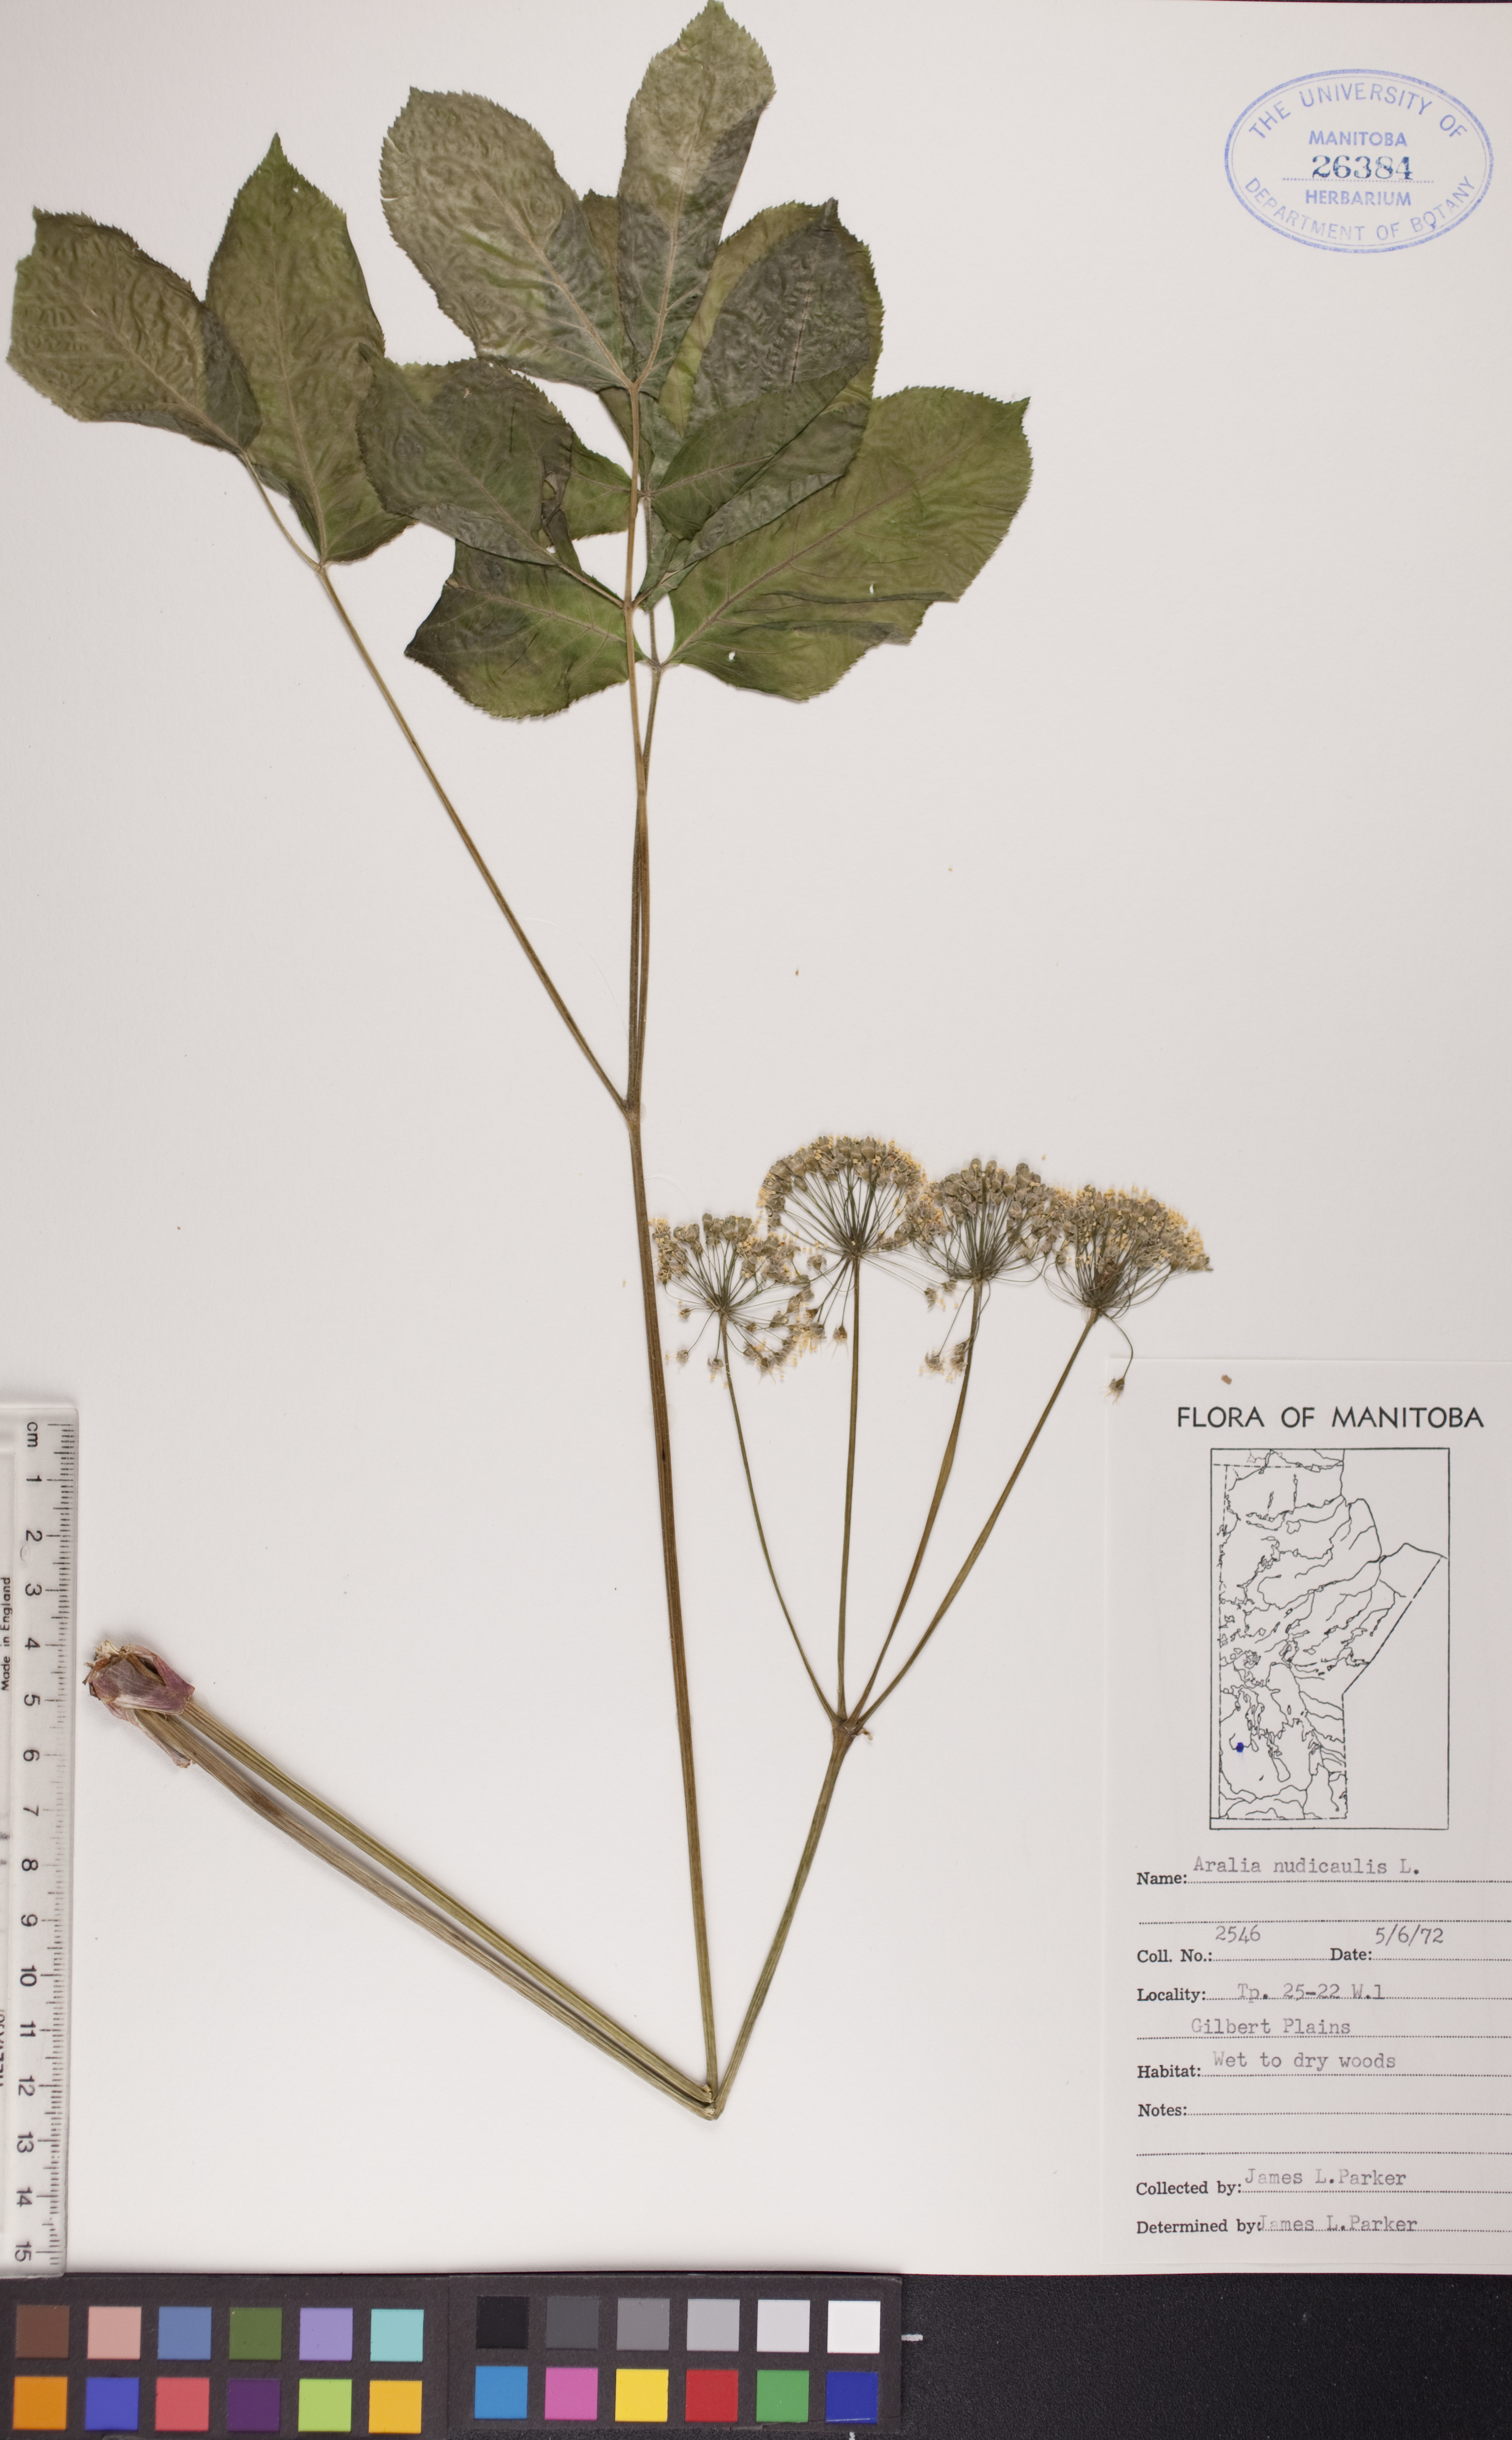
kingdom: Plantae
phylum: Tracheophyta
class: Magnoliopsida
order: Apiales
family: Araliaceae
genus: Aralia
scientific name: Aralia nudicaulis
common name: Wild sarsaparilla
